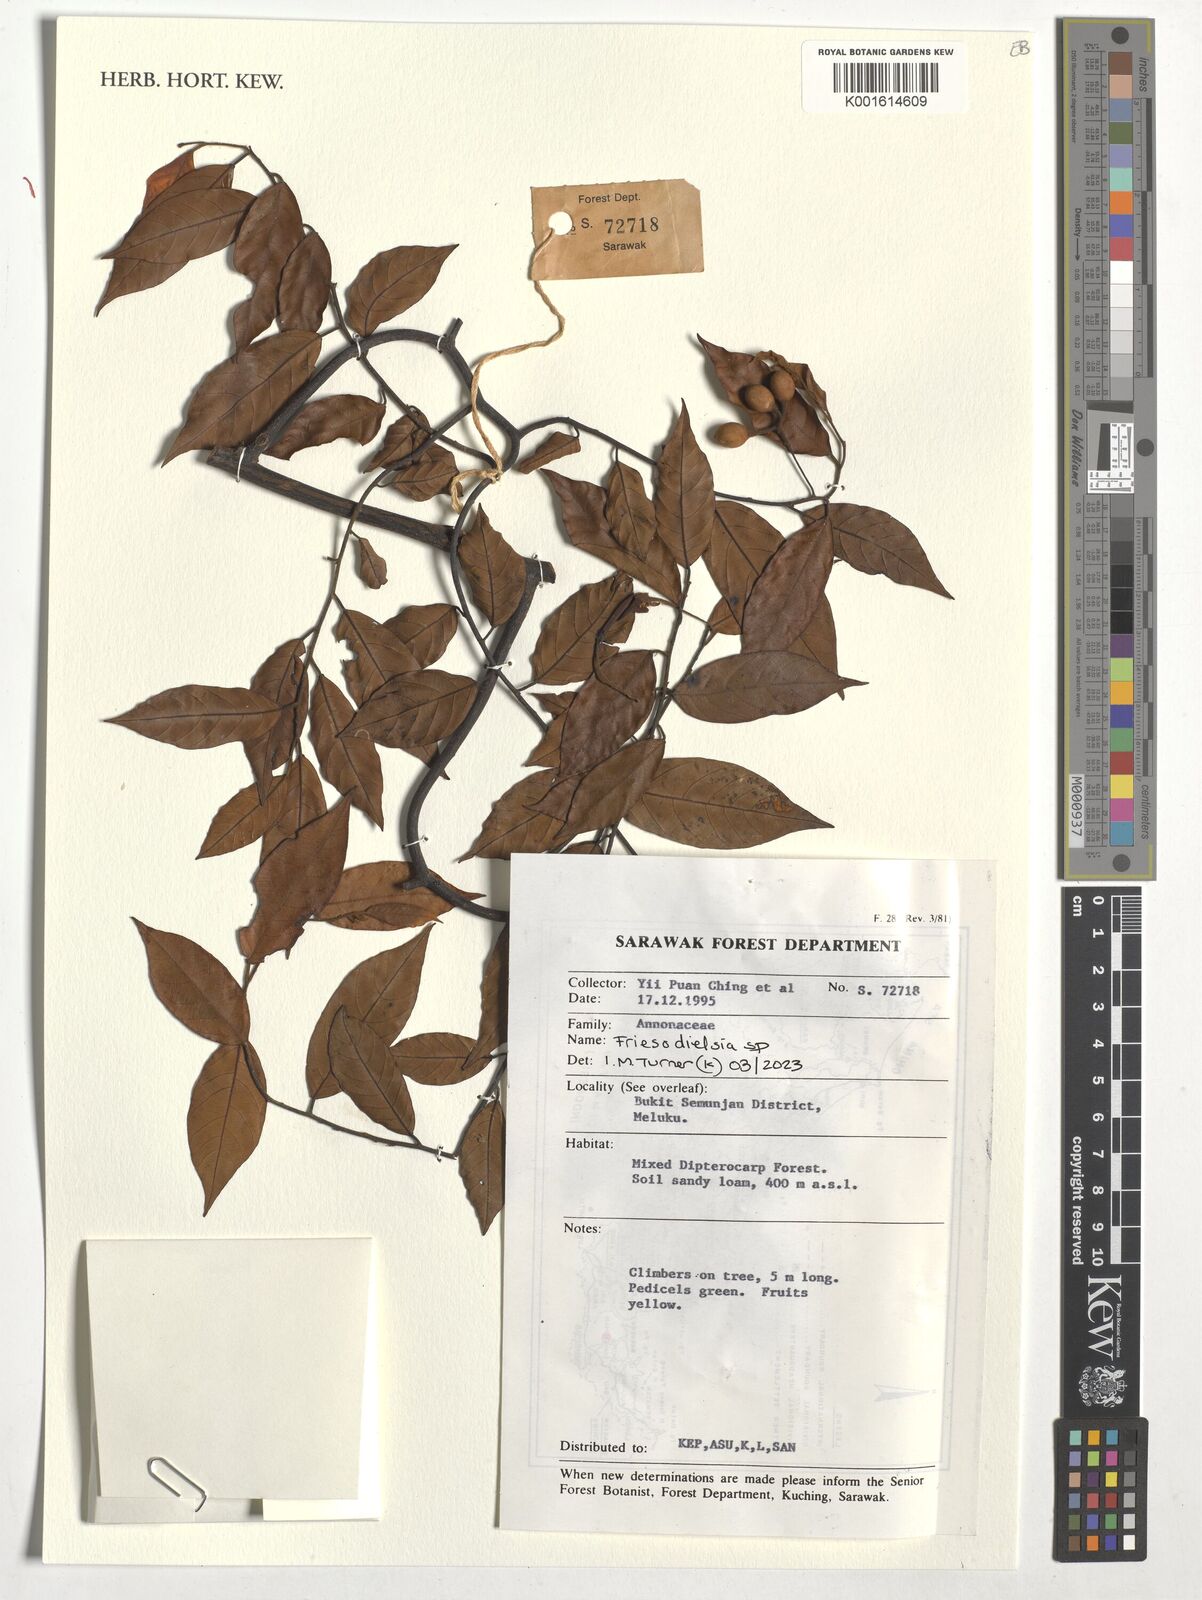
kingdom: Plantae
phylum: Tracheophyta
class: Magnoliopsida
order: Magnoliales
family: Annonaceae
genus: Friesodielsia
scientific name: Friesodielsia
